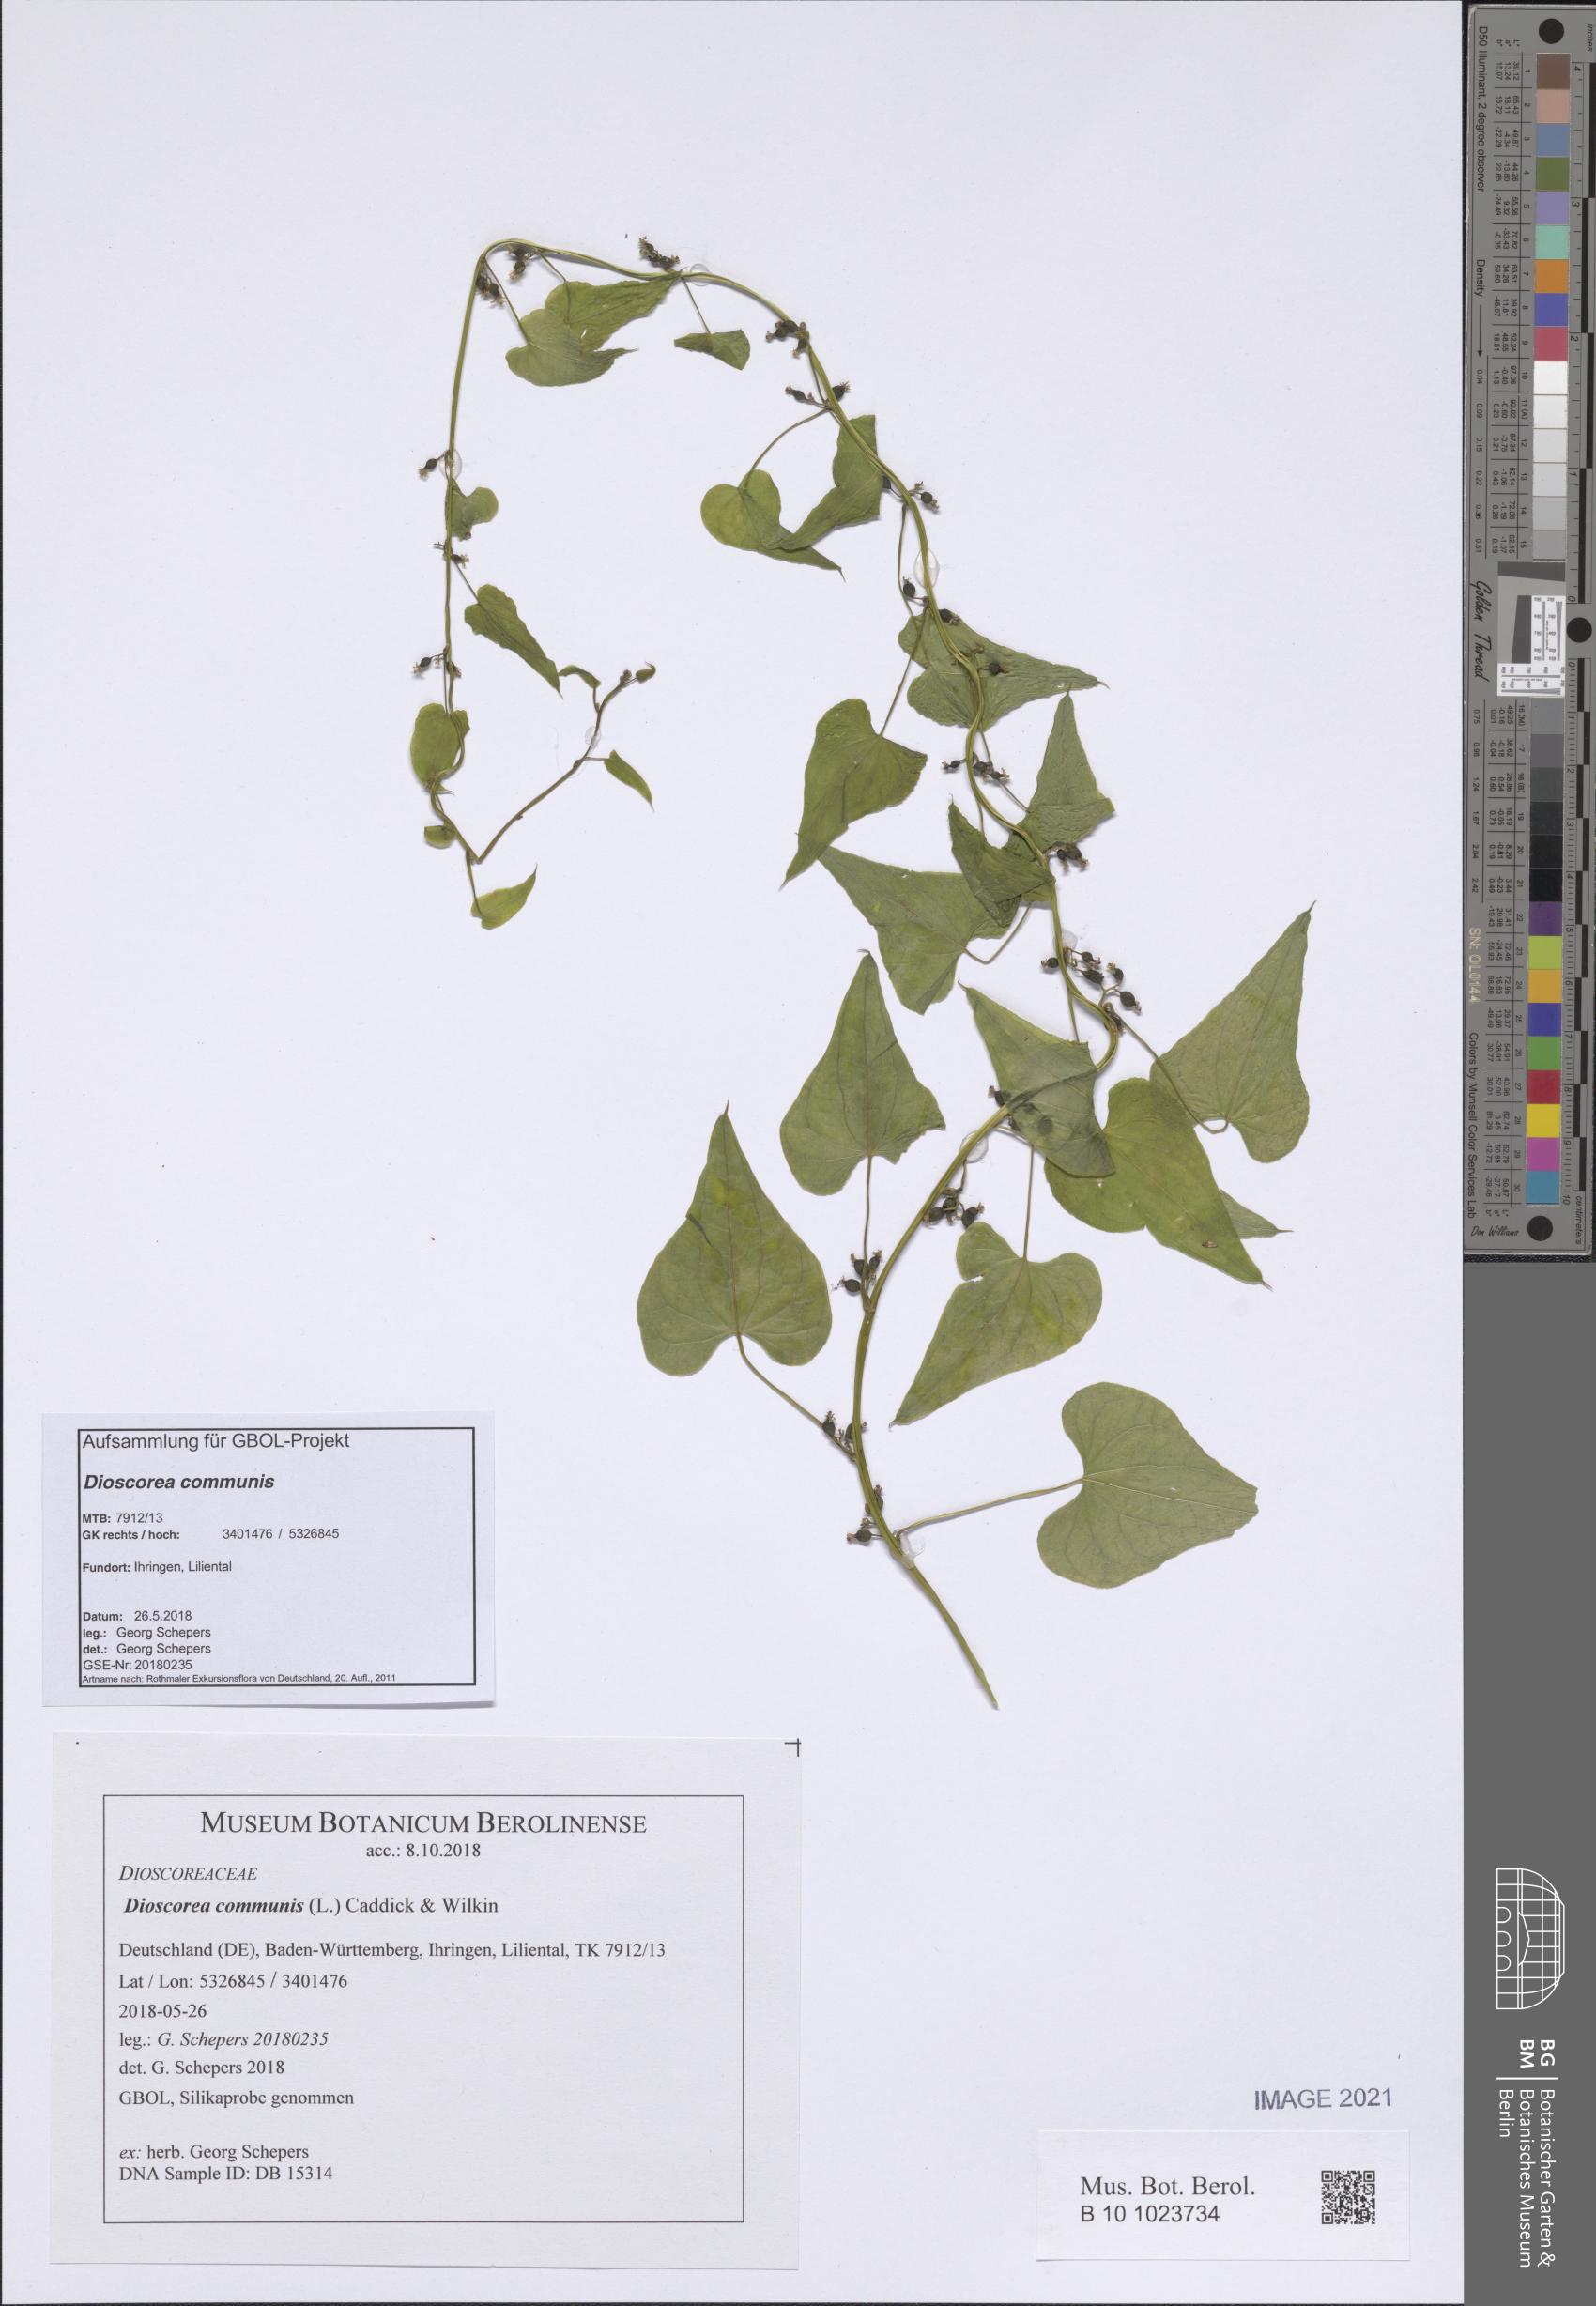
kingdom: Plantae
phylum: Tracheophyta
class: Liliopsida
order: Dioscoreales
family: Dioscoreaceae
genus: Dioscorea
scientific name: Dioscorea communis
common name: Black-bindweed
